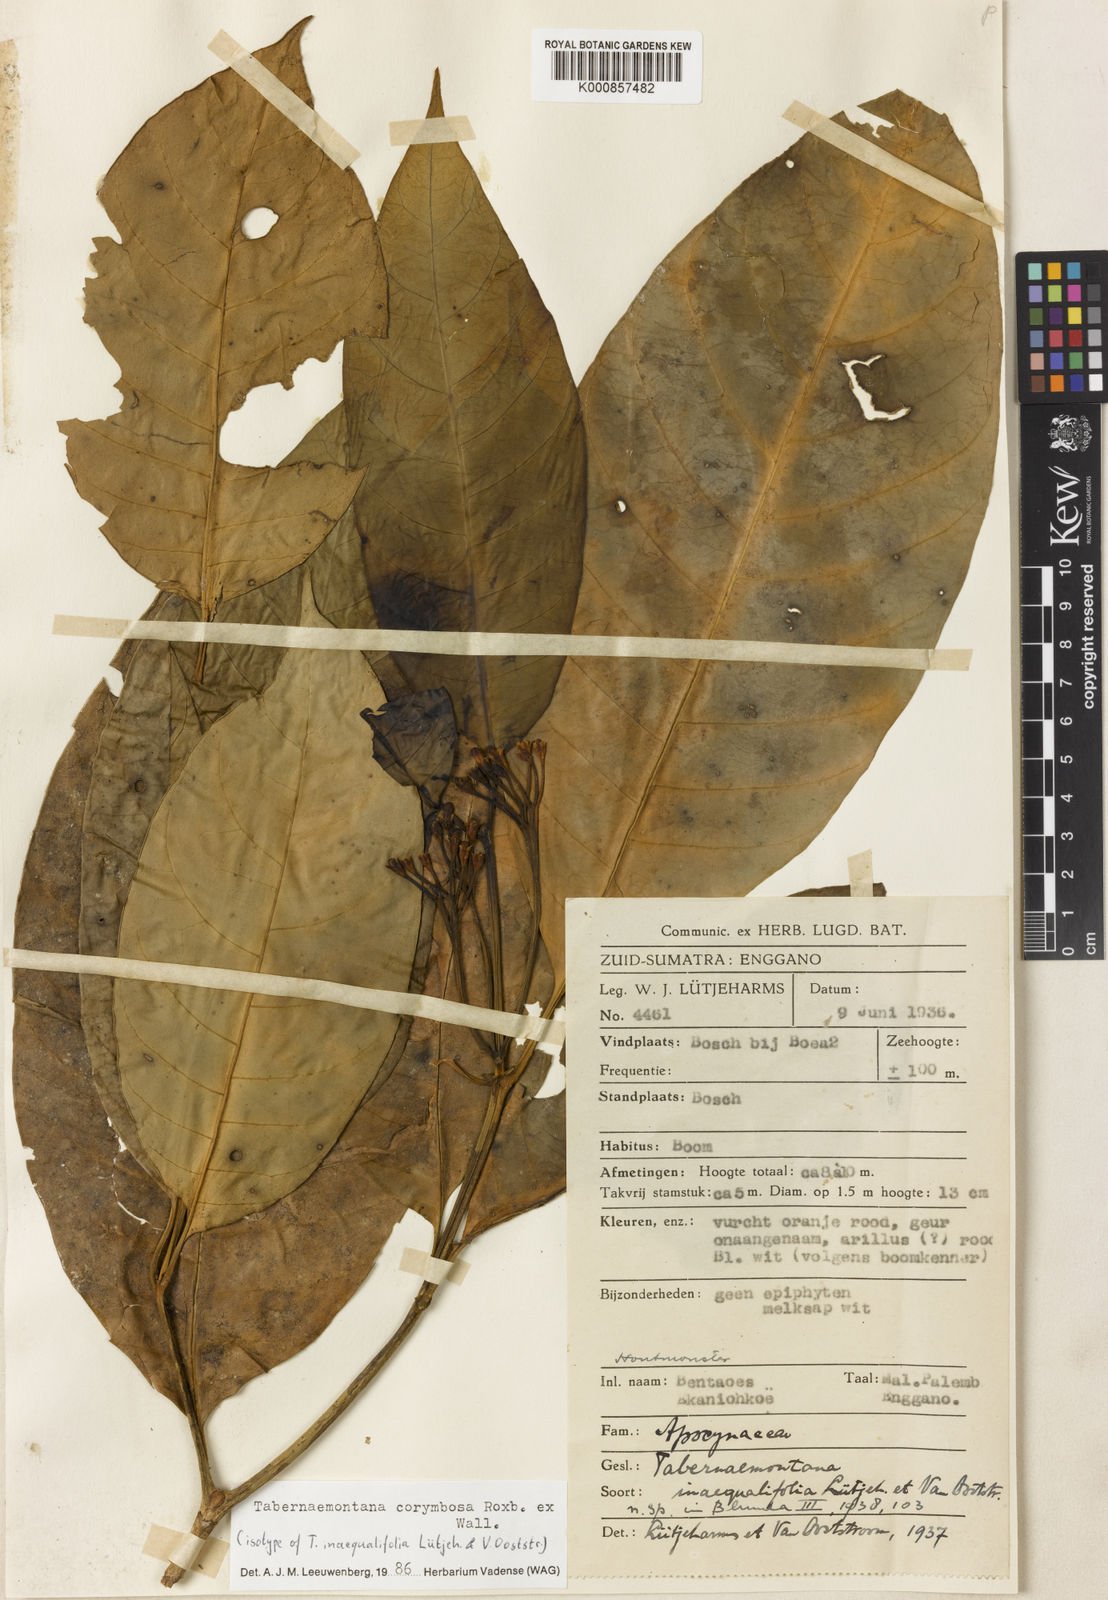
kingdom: Plantae
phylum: Tracheophyta
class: Magnoliopsida
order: Gentianales
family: Apocynaceae
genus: Tabernaemontana
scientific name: Tabernaemontana corymbosa
